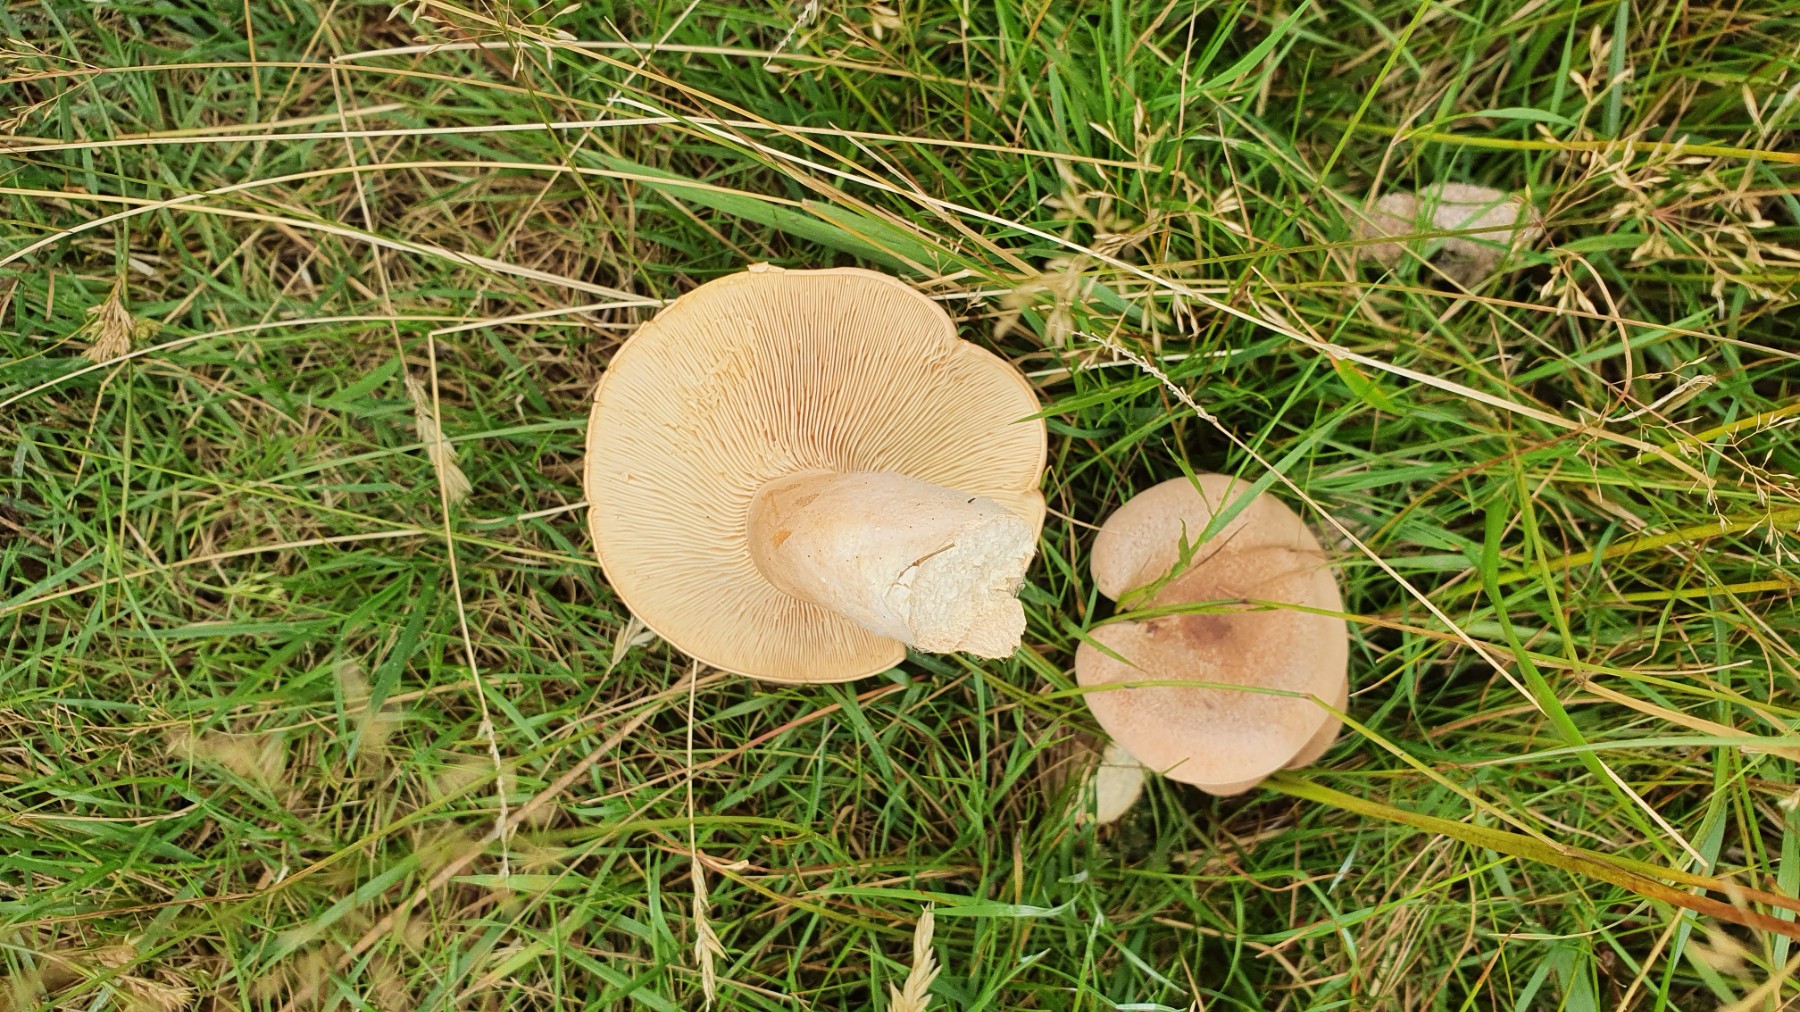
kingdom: Fungi
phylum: Basidiomycota
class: Agaricomycetes
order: Russulales
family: Russulaceae
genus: Lactarius
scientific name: Lactarius helvus
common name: mose-mælkehat
